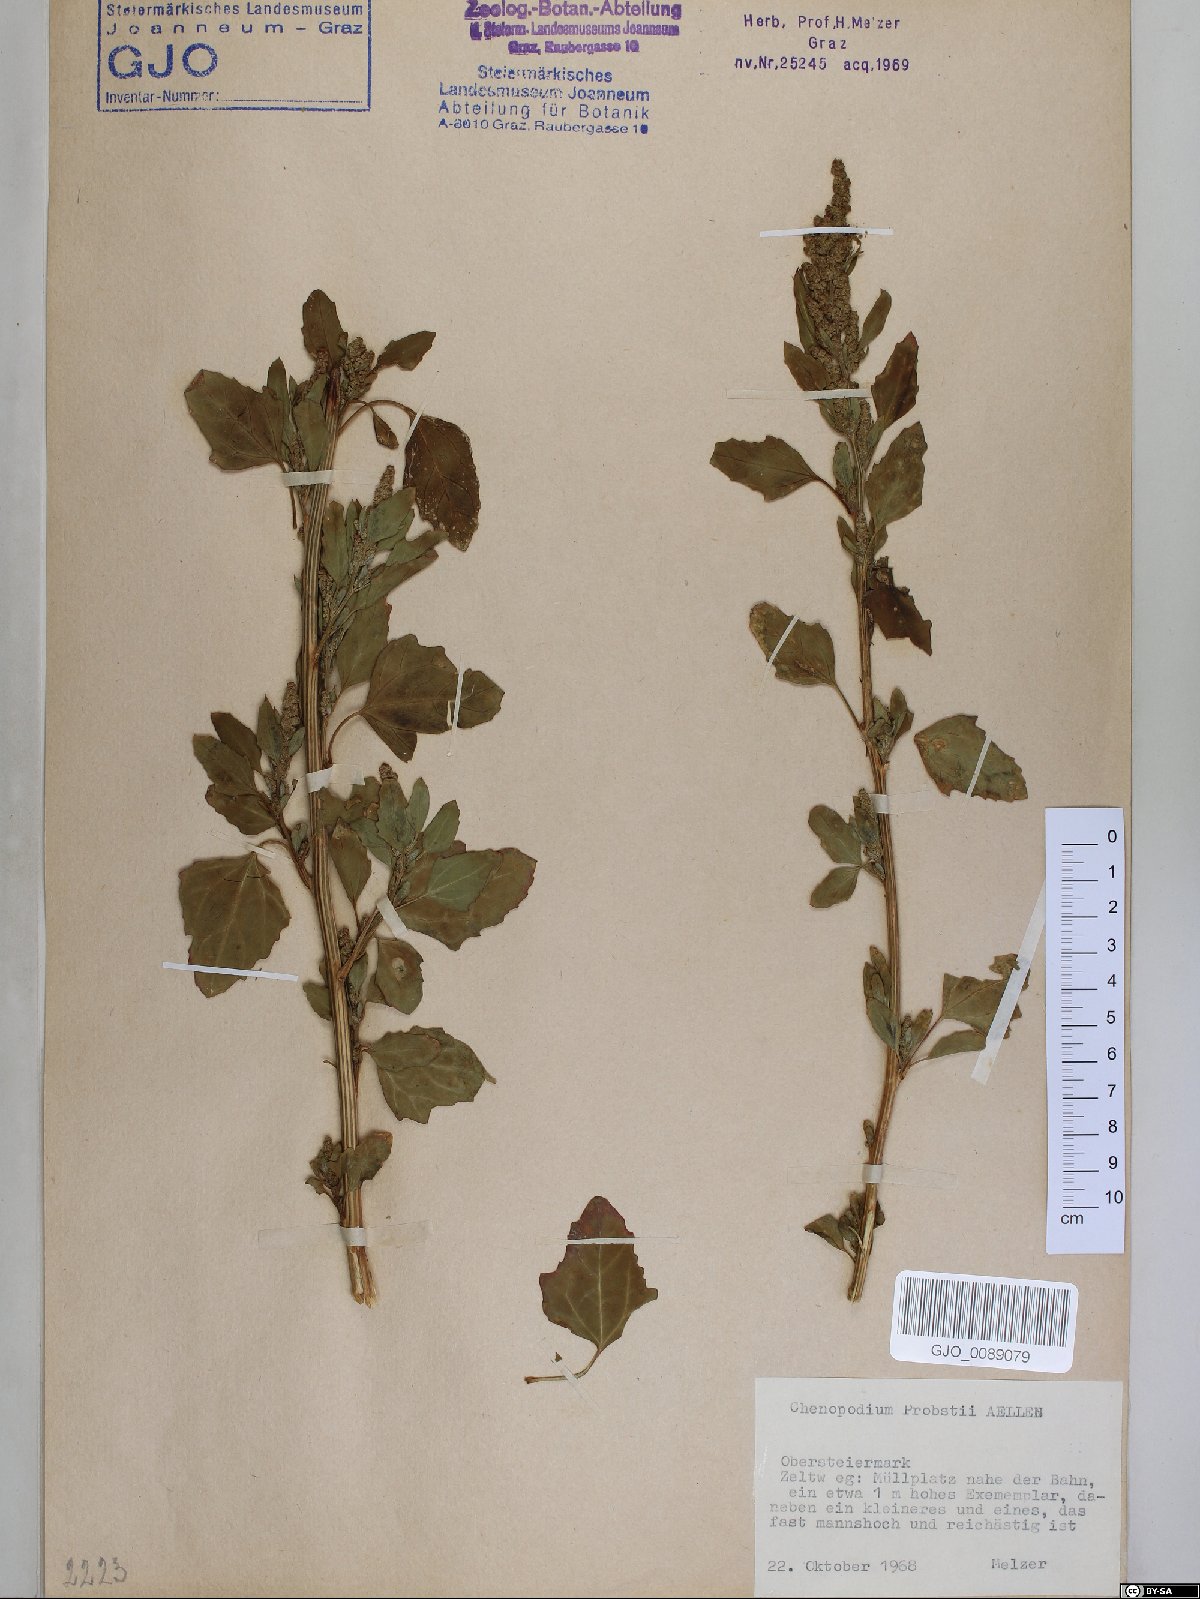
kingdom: Plantae
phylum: Tracheophyta
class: Magnoliopsida
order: Caryophyllales
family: Amaranthaceae
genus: Chenopodium
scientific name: Chenopodium probstii
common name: Probst's goosefoot
